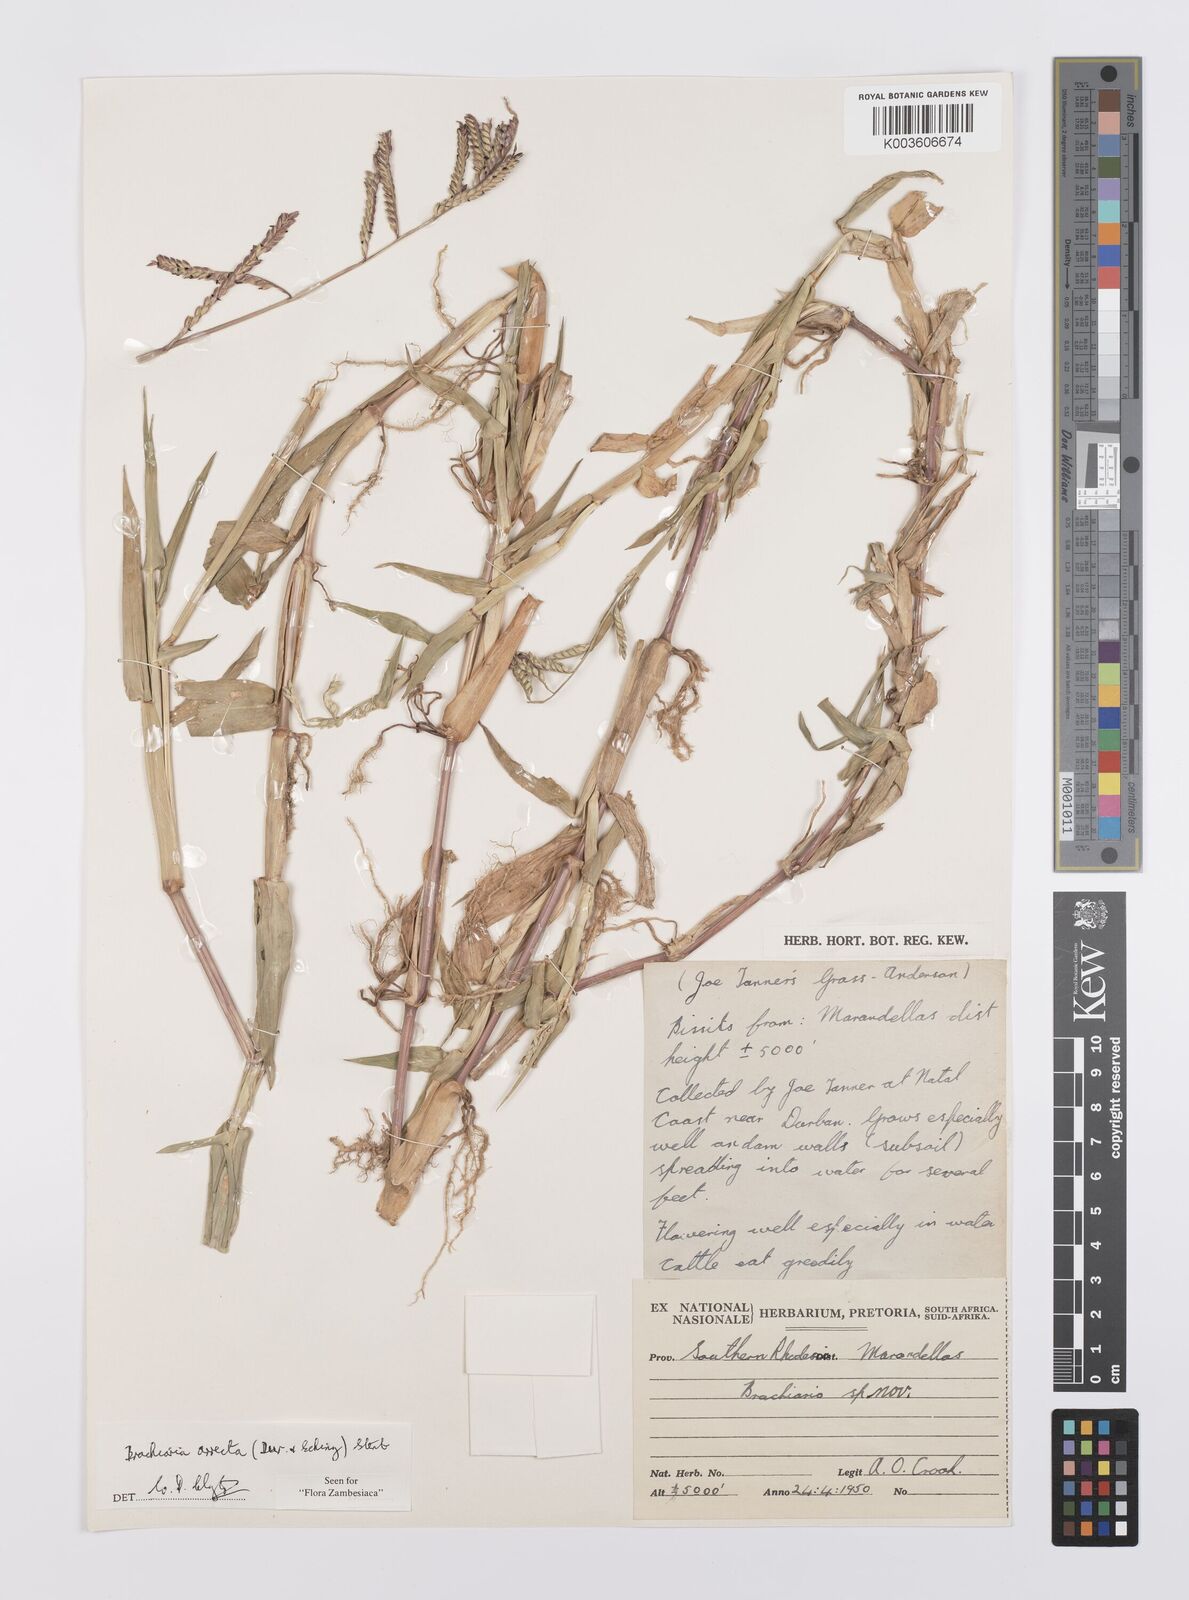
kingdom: Plantae
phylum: Tracheophyta
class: Liliopsida
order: Poales
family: Poaceae
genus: Urochloa
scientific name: Urochloa arrecta
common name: African signalgrass
